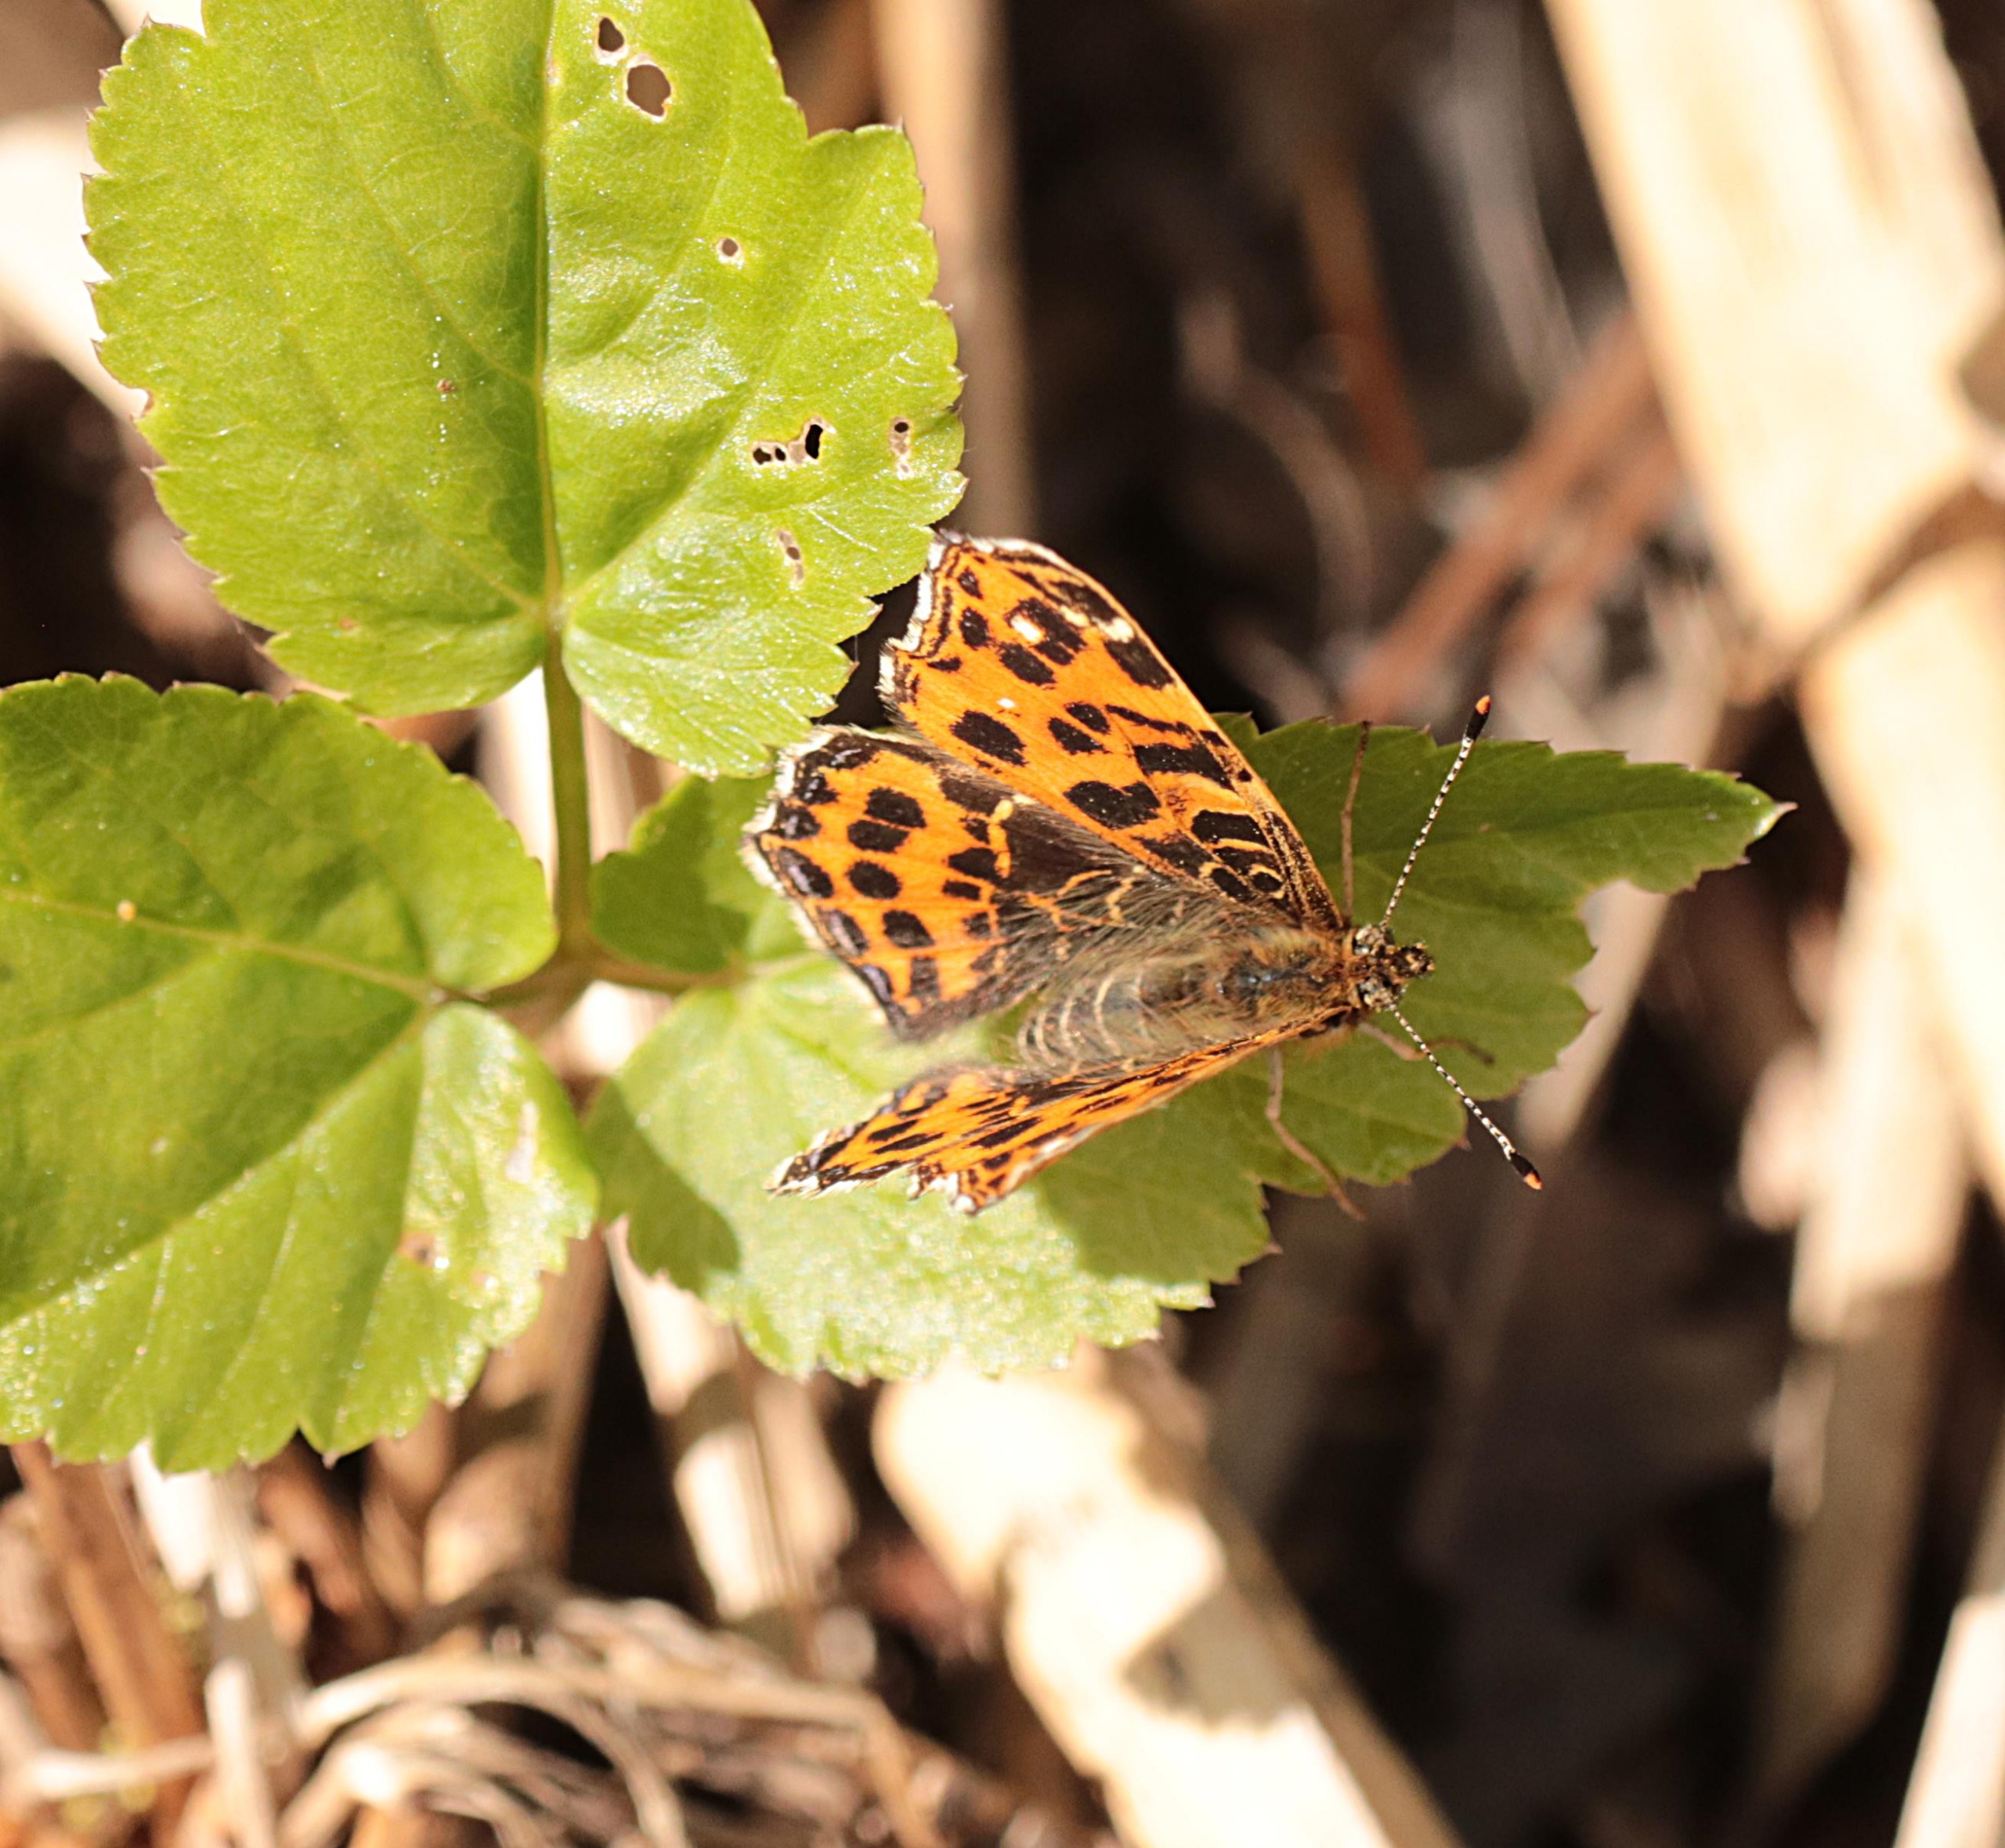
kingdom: Animalia
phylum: Arthropoda
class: Insecta
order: Lepidoptera
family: Nymphalidae
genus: Araschnia
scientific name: Araschnia levana
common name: Nældesommerfugl
